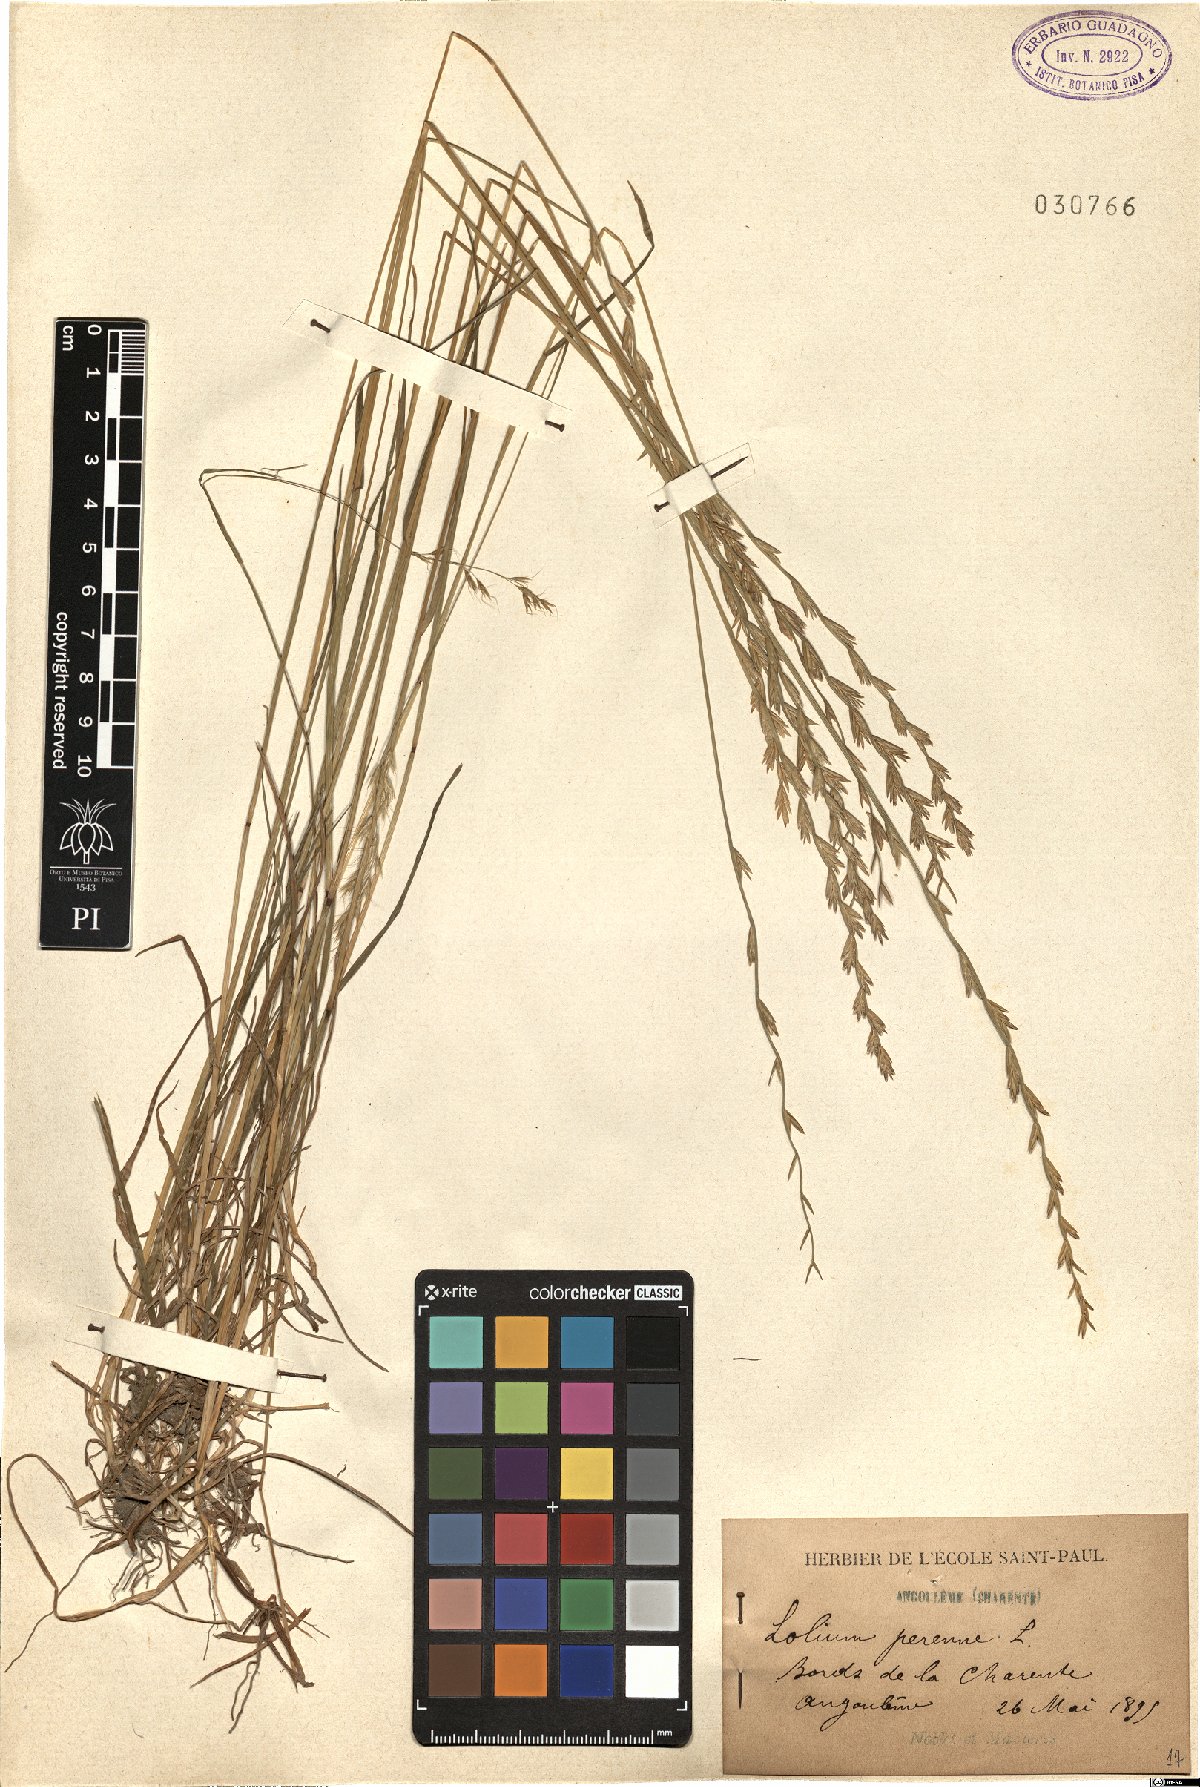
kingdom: Plantae
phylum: Tracheophyta
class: Liliopsida
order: Poales
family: Poaceae
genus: Lolium
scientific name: Lolium perenne
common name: Perennial ryegrass
